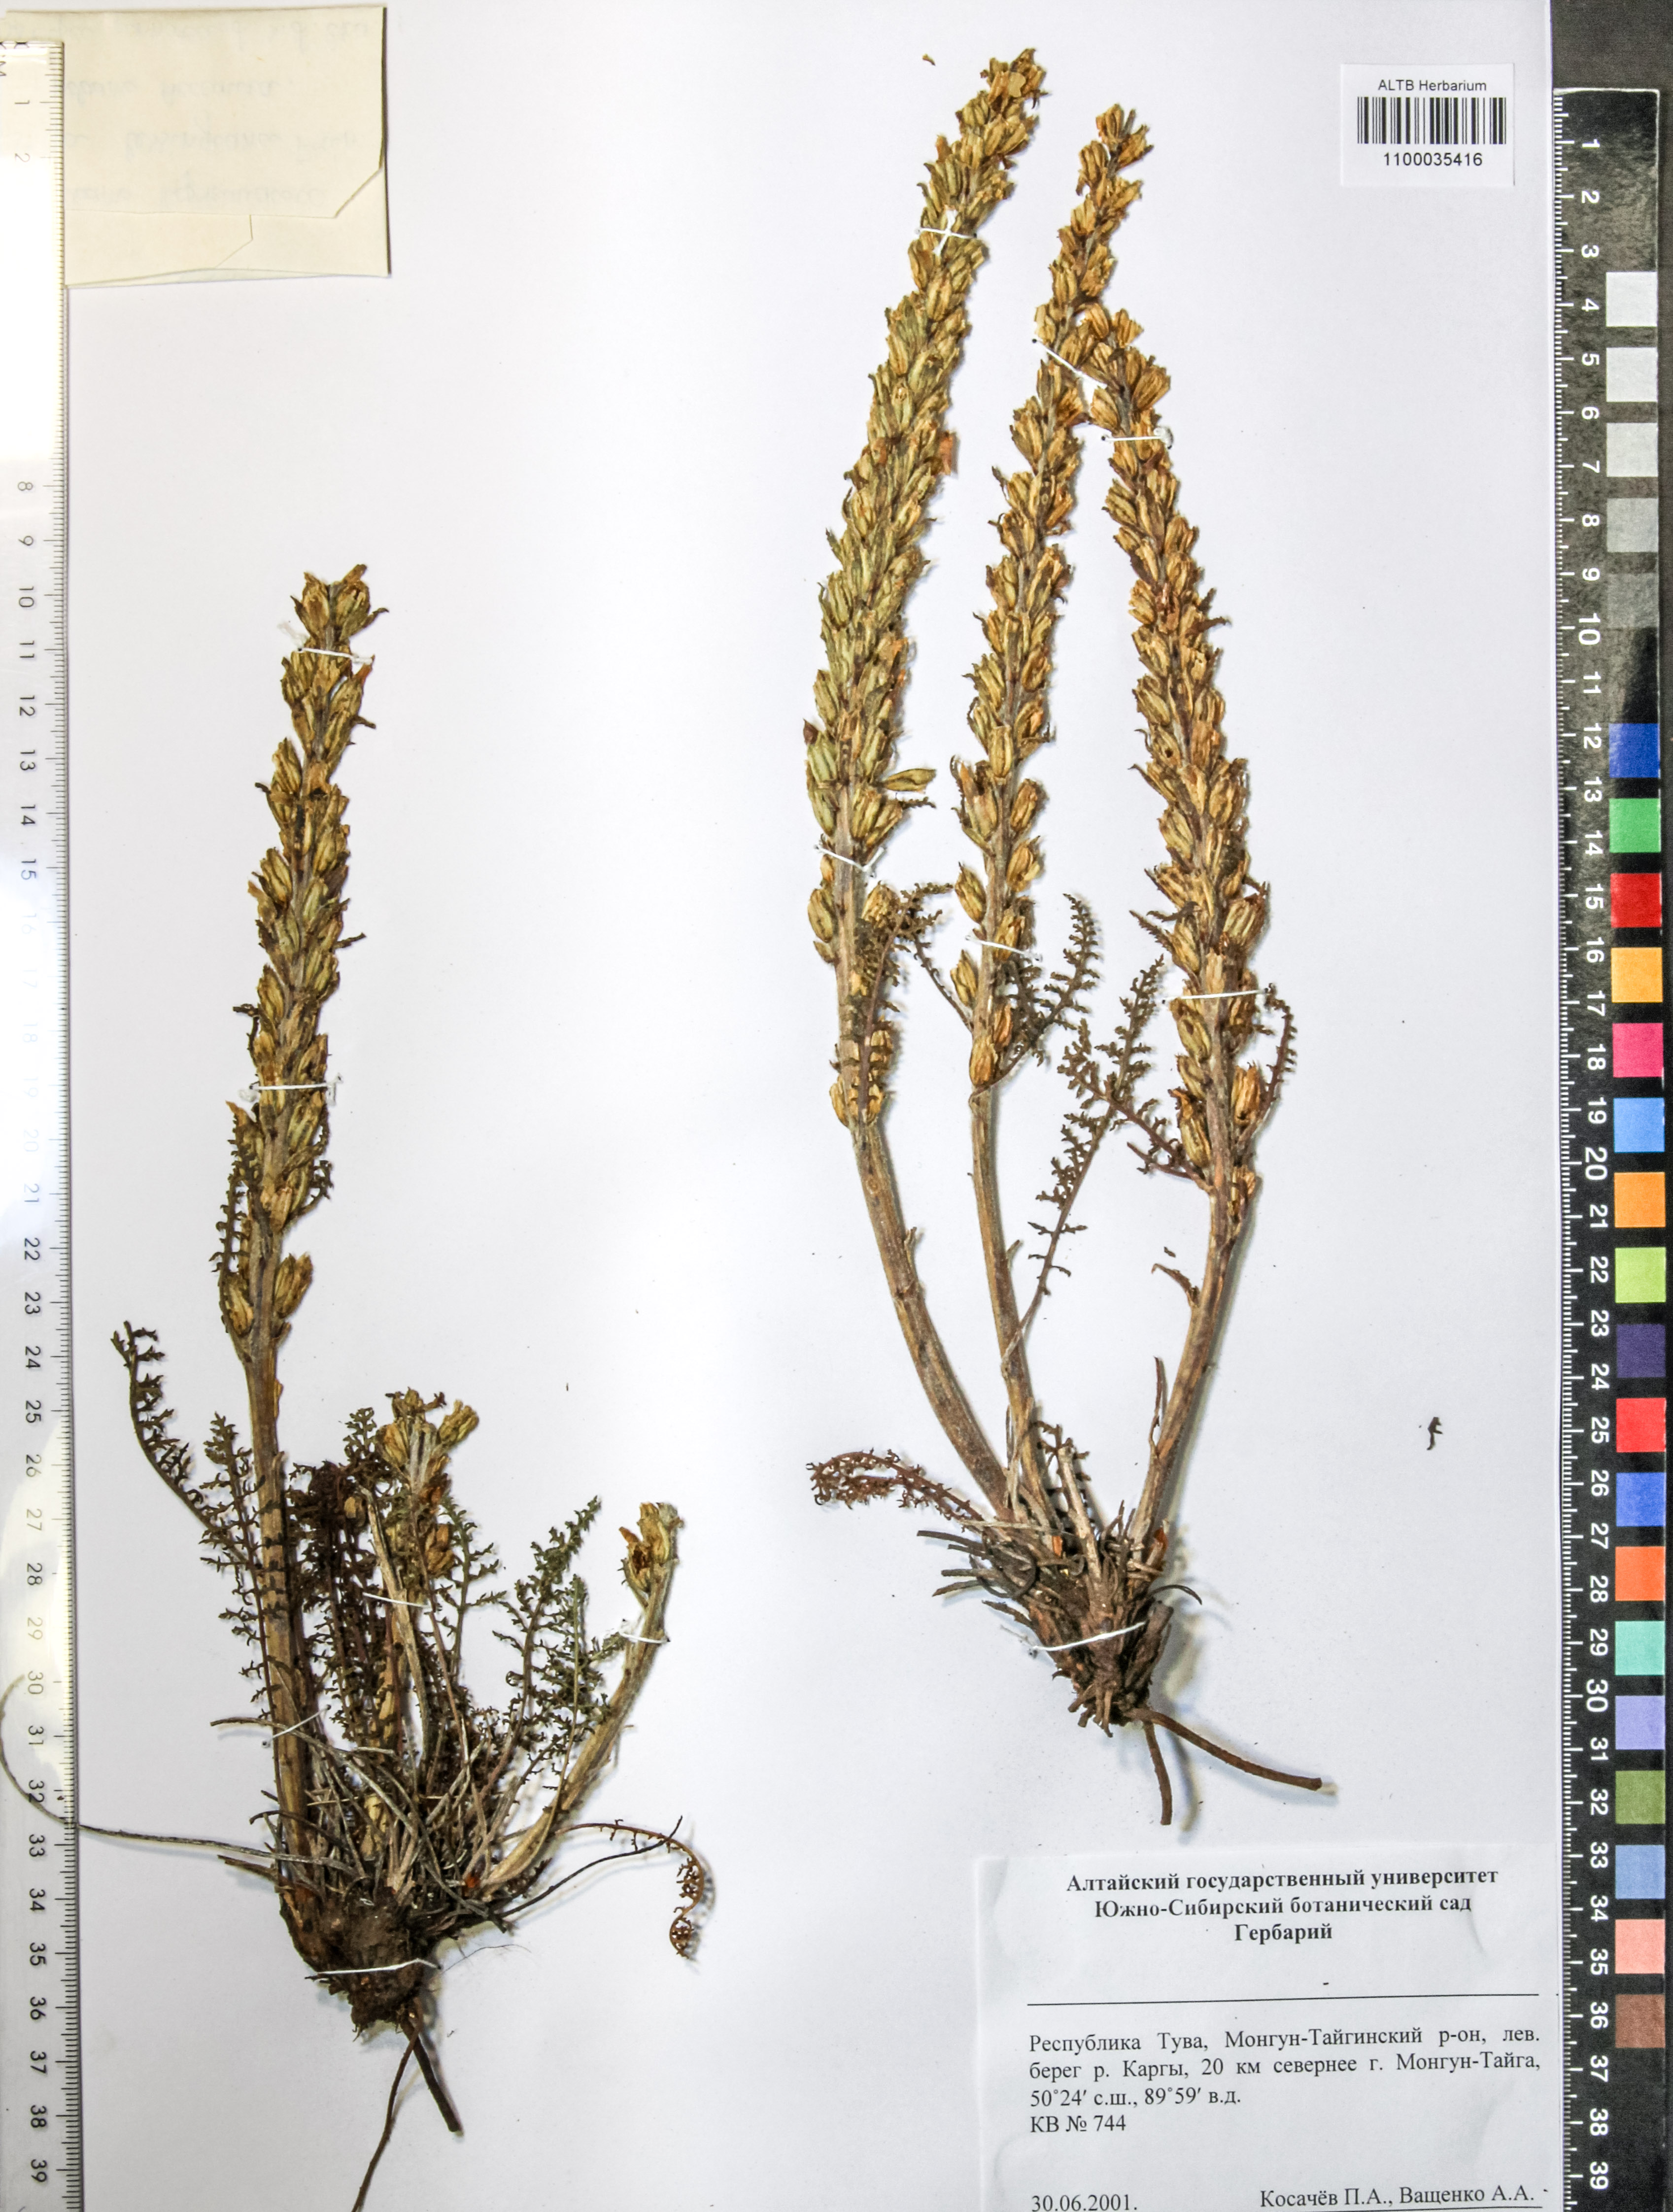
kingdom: Plantae
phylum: Tracheophyta
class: Magnoliopsida
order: Lamiales
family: Orobanchaceae
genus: Pedicularis
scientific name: Pedicularis sibirica
